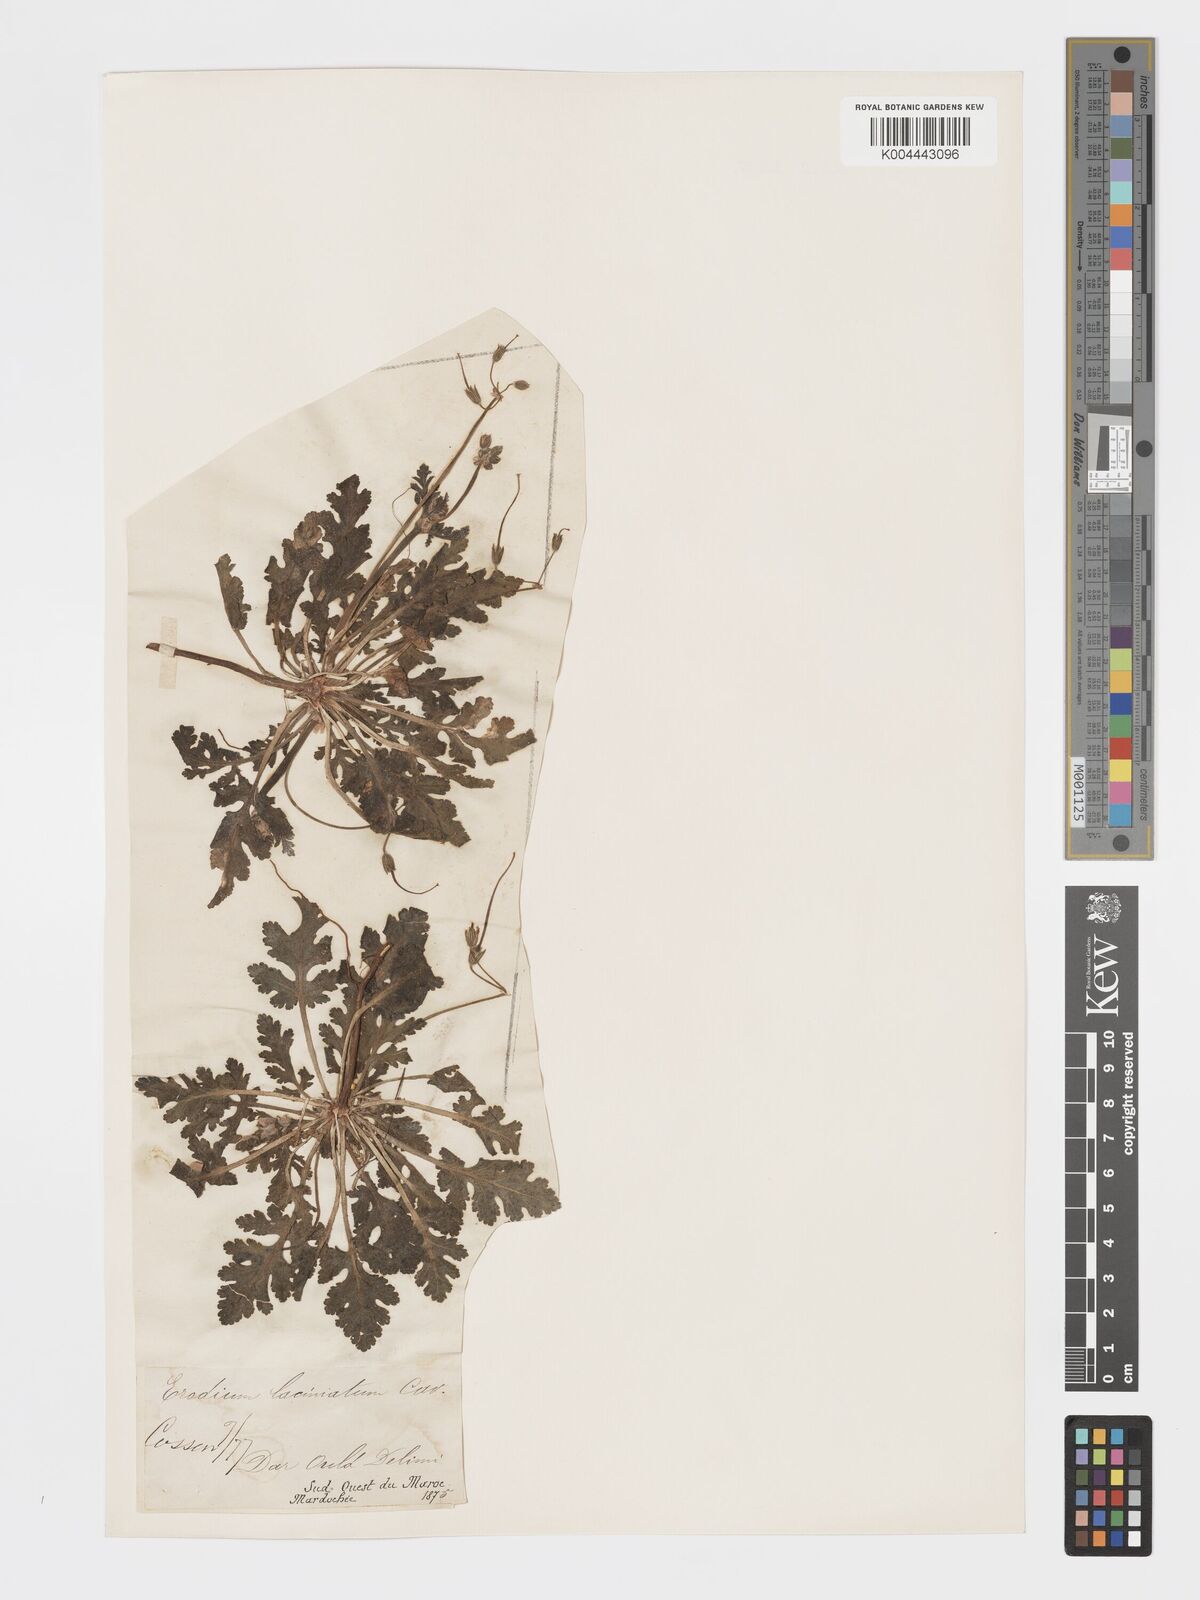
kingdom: Plantae
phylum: Tracheophyta
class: Magnoliopsida
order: Geraniales
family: Geraniaceae
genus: Erodium
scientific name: Erodium laciniatum
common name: Cutleaf stork's bill
